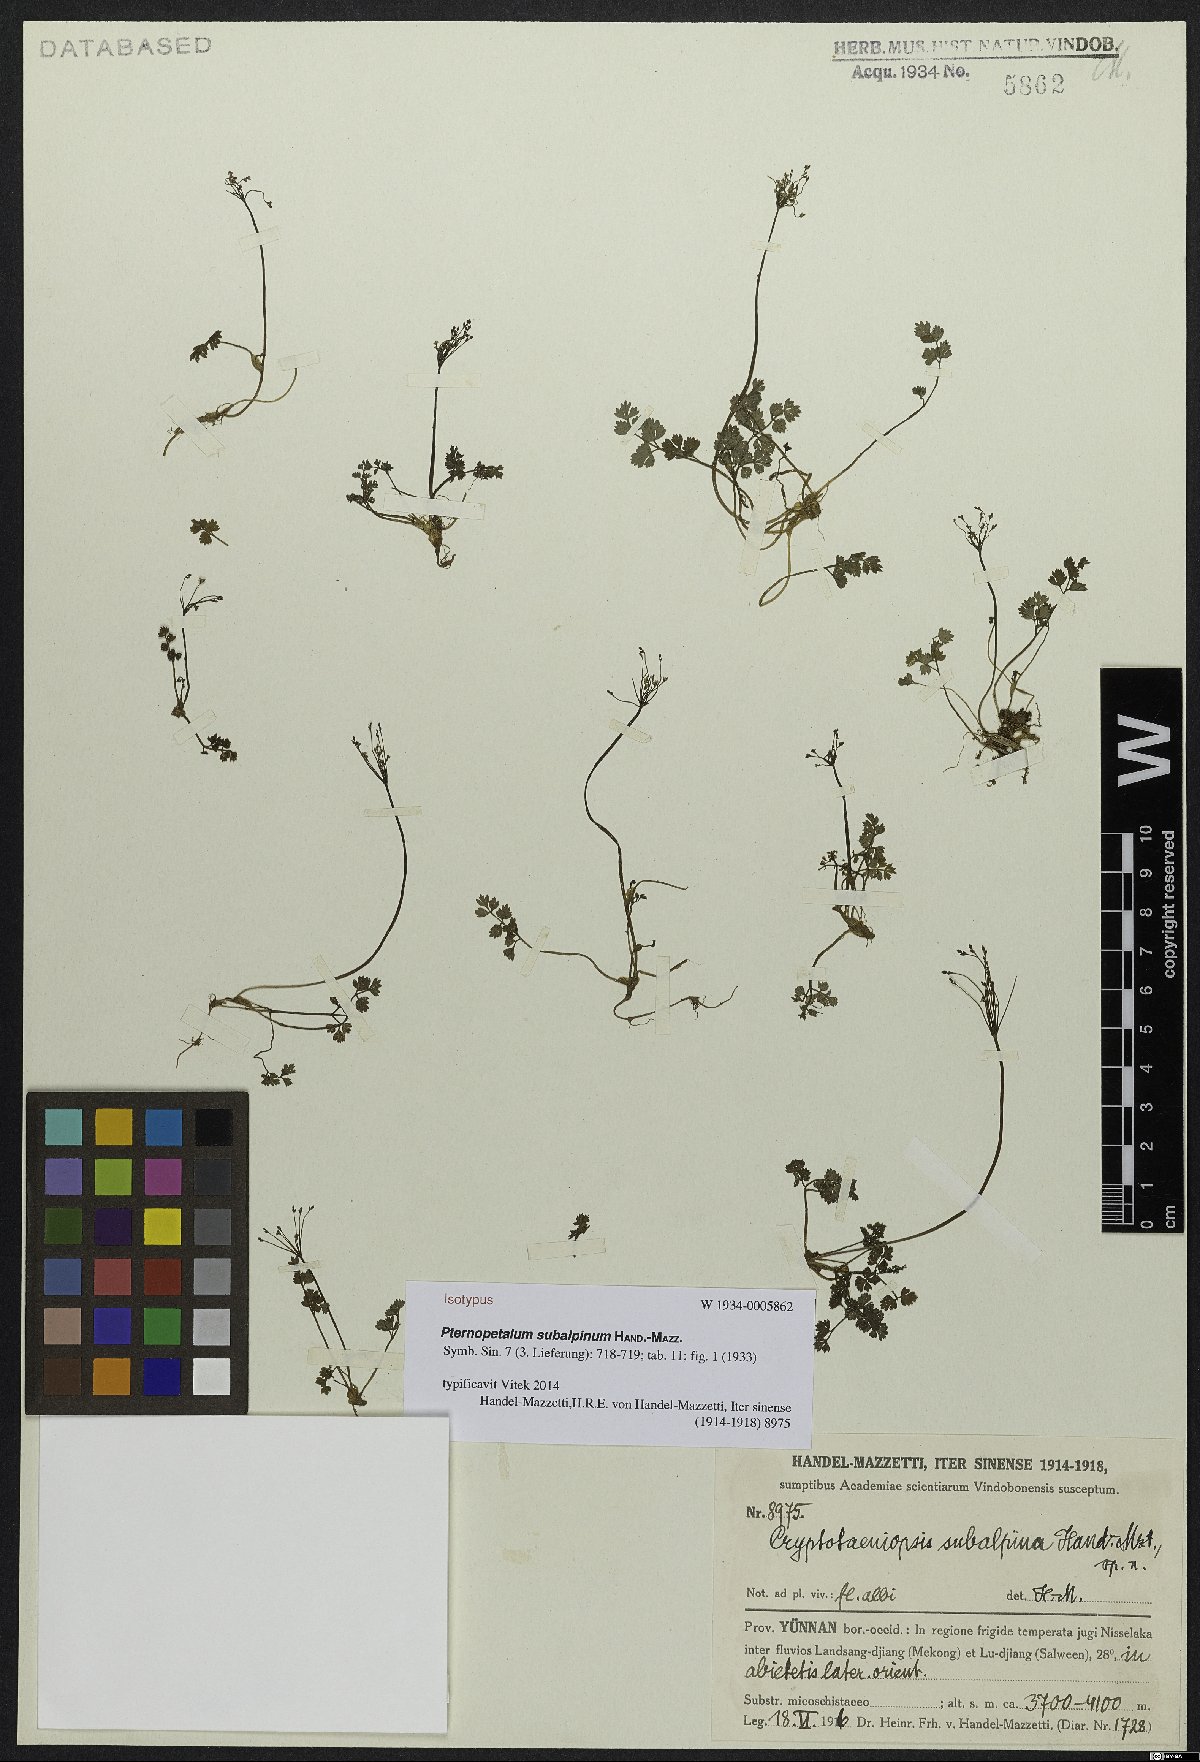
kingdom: Plantae
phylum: Tracheophyta
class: Magnoliopsida
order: Apiales
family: Apiaceae
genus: Pternopetalum
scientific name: Pternopetalum subalpinum
